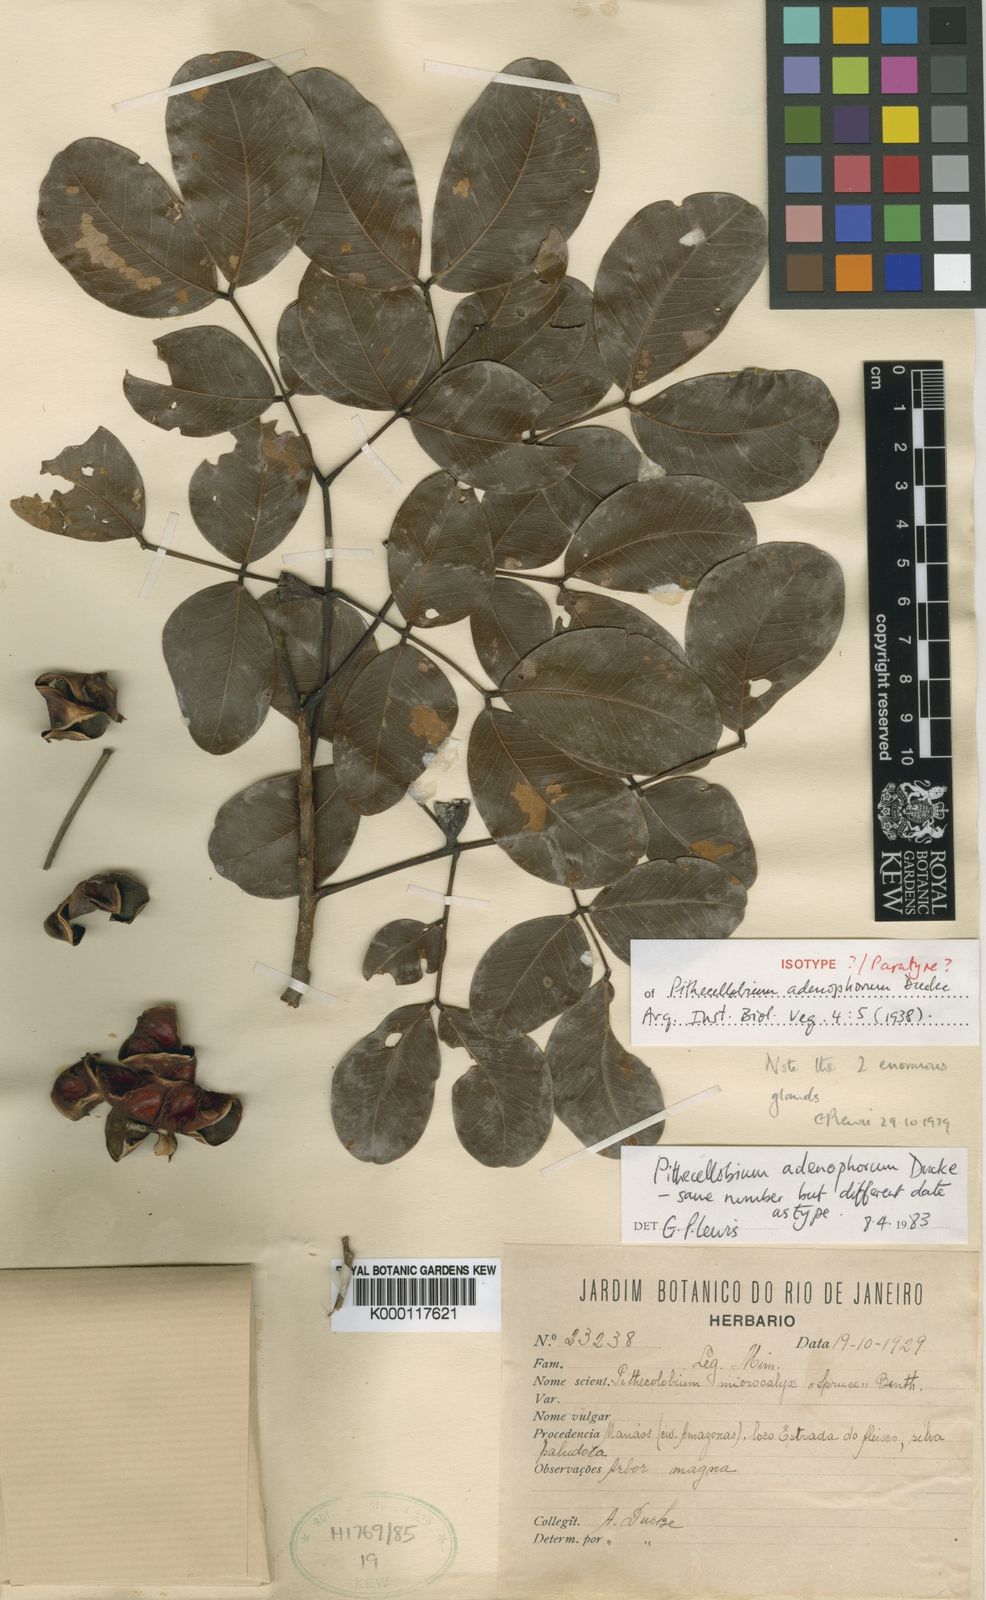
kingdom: Plantae
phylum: Tracheophyta
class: Magnoliopsida
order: Fabales
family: Fabaceae
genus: Jupunba
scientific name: Jupunba adenophora
